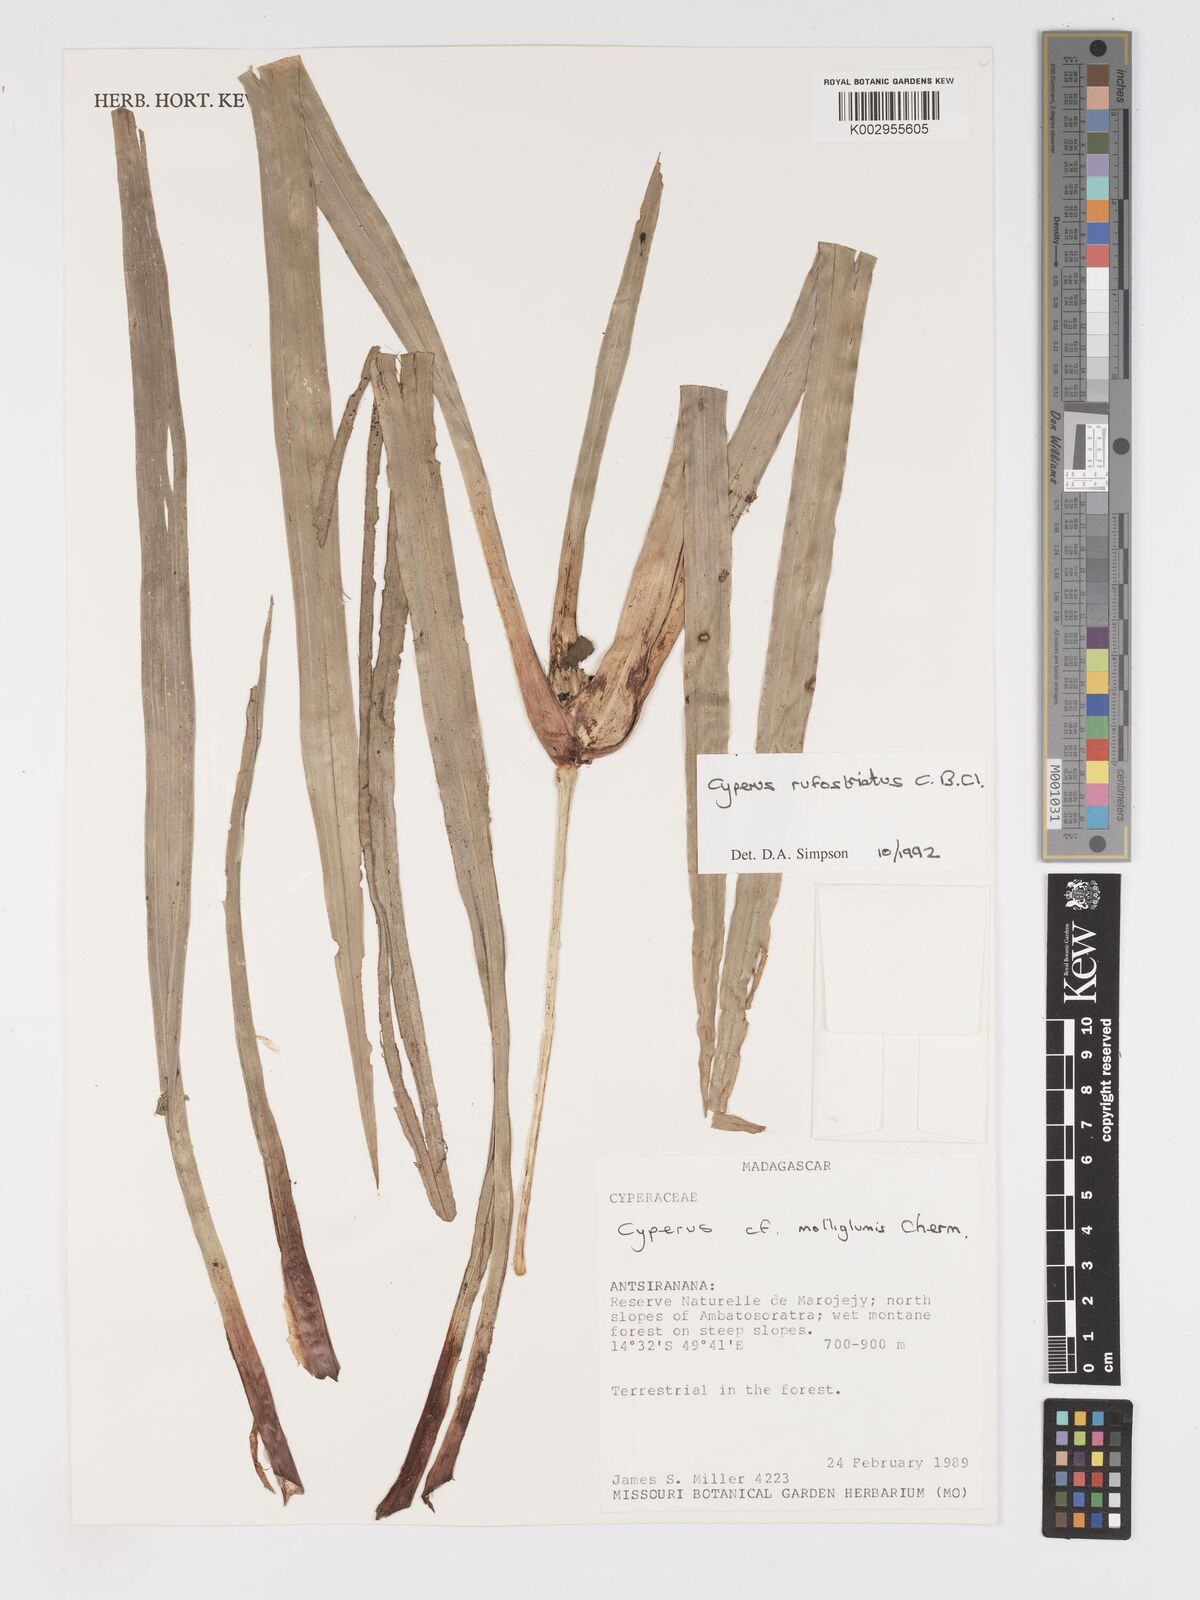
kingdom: Plantae
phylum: Tracheophyta
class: Liliopsida
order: Poales
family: Cyperaceae
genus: Cyperus
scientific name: Cyperus rufostriatus
